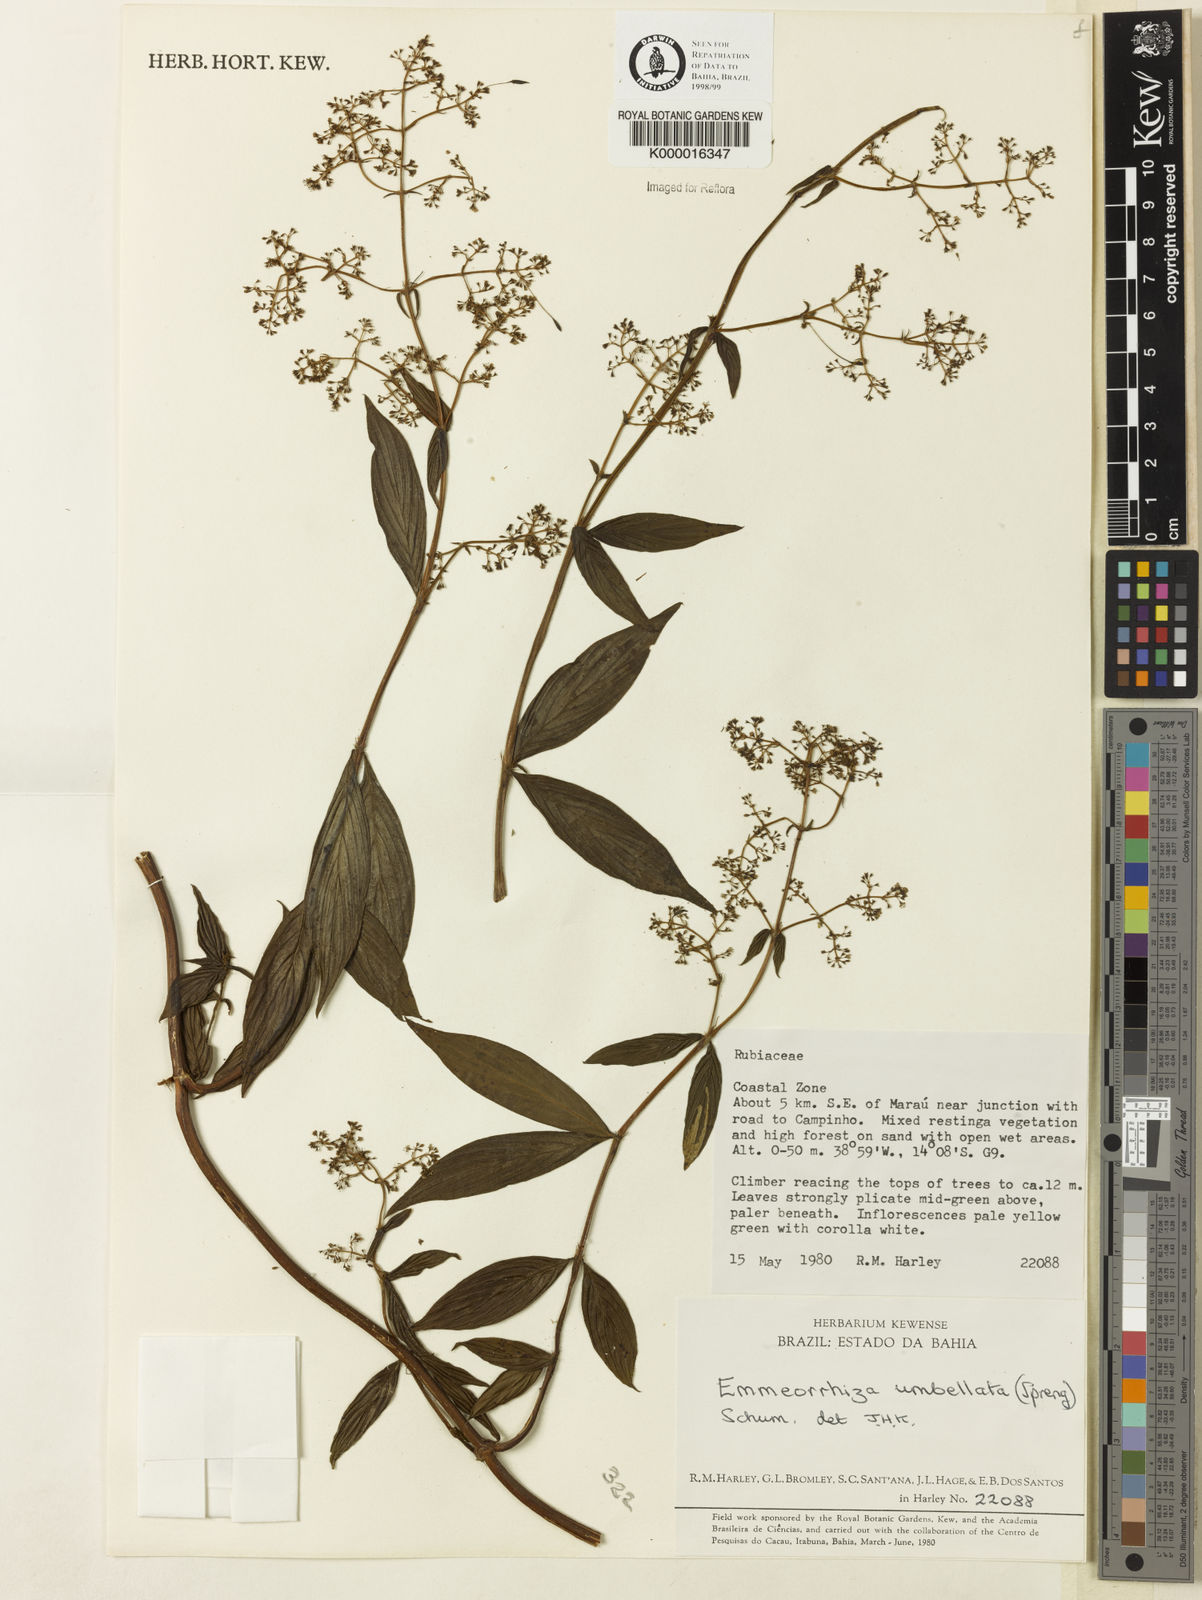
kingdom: Plantae
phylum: Tracheophyta
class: Magnoliopsida
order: Gentianales
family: Rubiaceae
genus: Emmeorhiza
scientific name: Emmeorhiza umbellata
